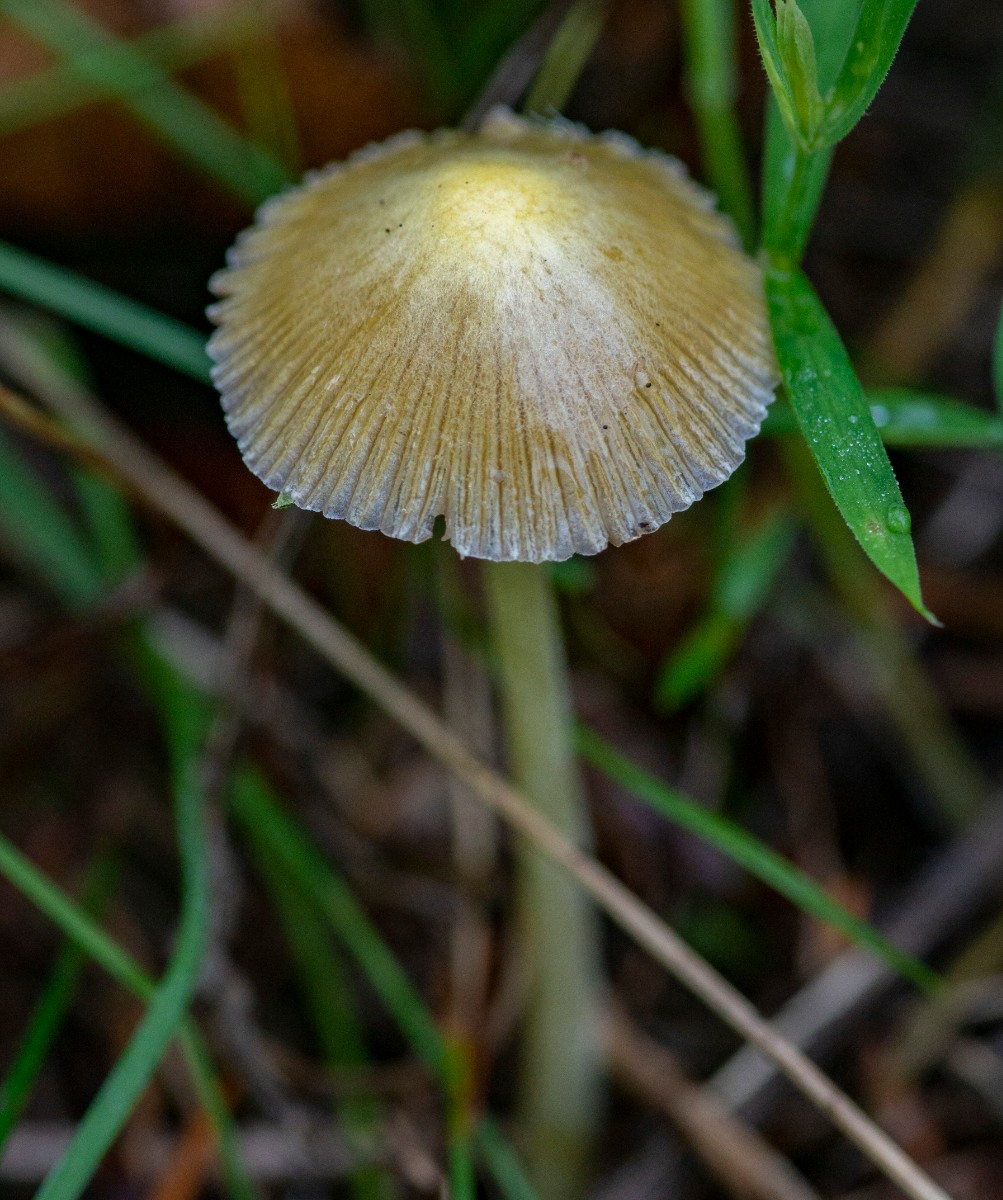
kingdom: Fungi
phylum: Basidiomycota
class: Agaricomycetes
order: Agaricales
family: Bolbitiaceae
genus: Bolbitius
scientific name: Bolbitius titubans
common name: almindelig gulhat
